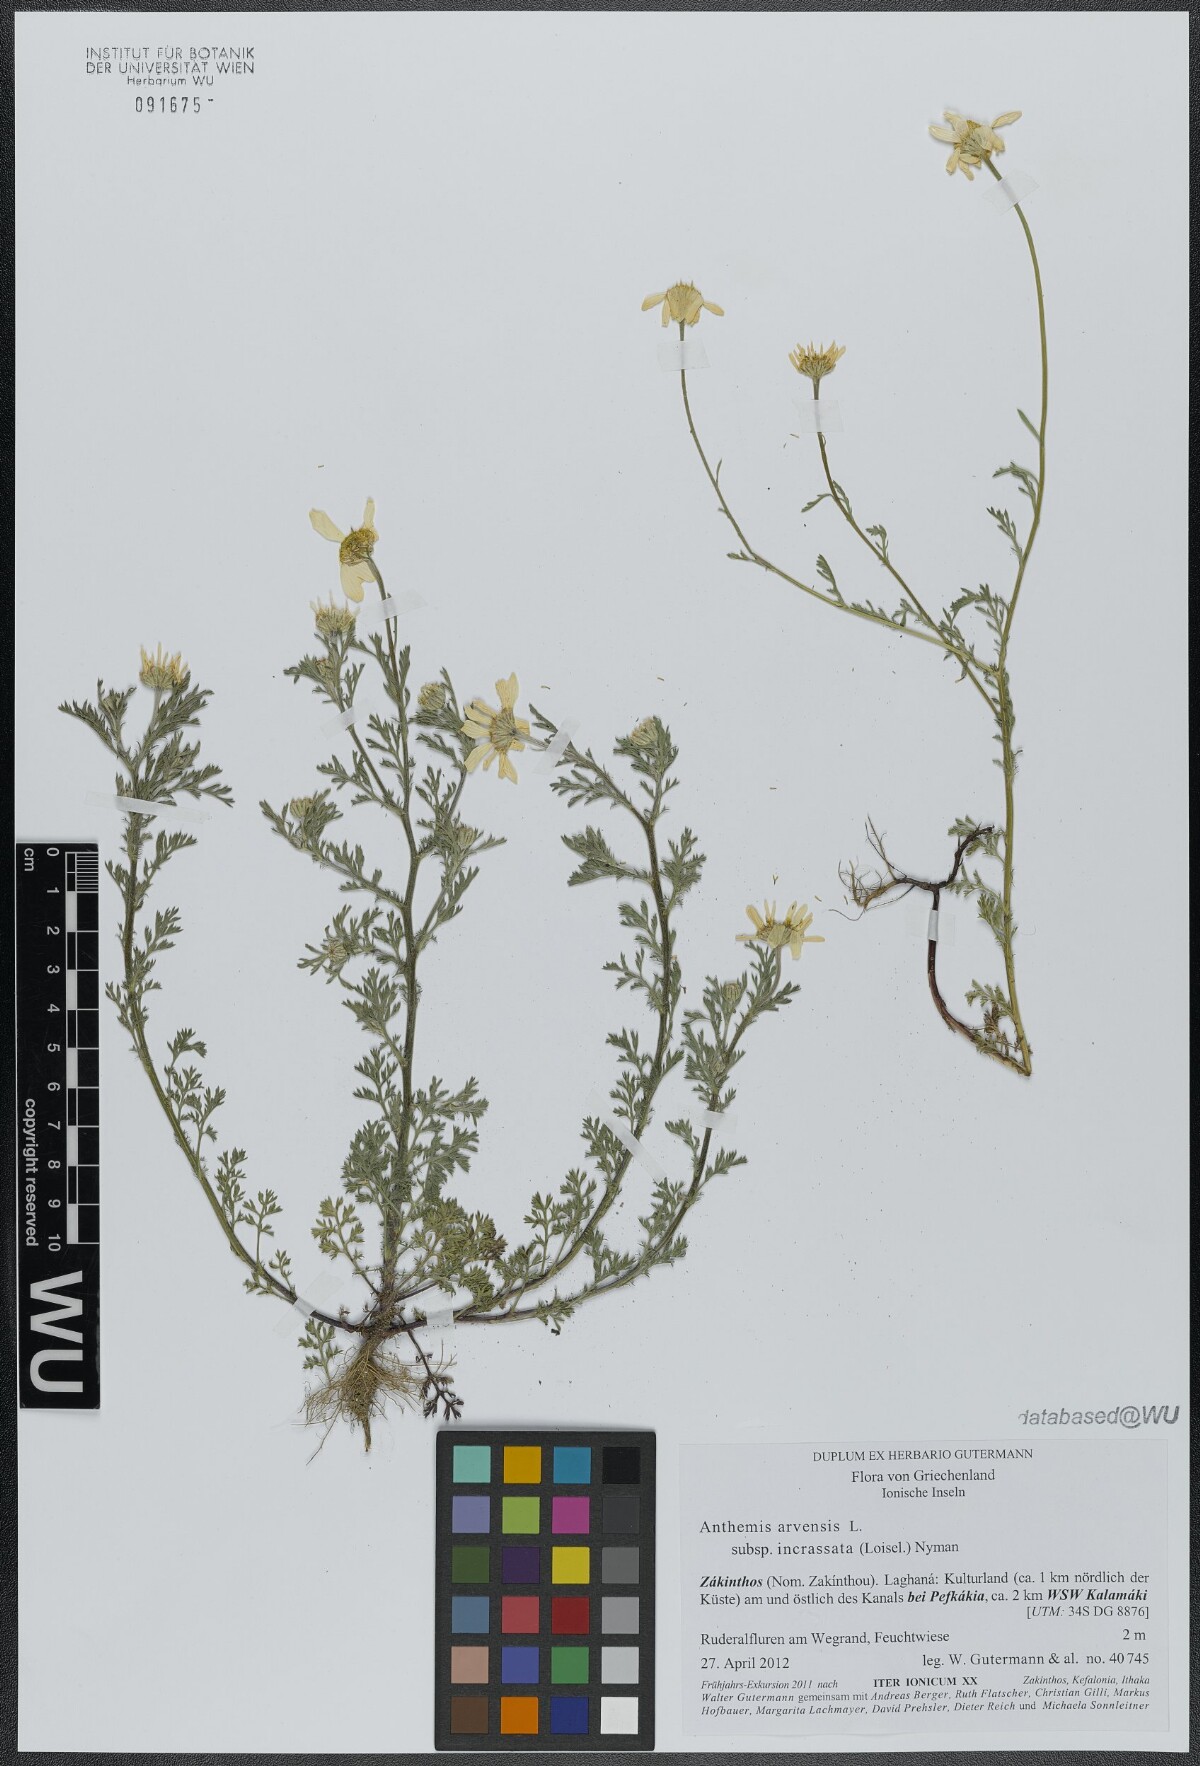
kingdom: Plantae
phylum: Tracheophyta
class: Magnoliopsida
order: Asterales
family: Asteraceae
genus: Anthemis
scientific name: Anthemis arvensis
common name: Corn chamomile
